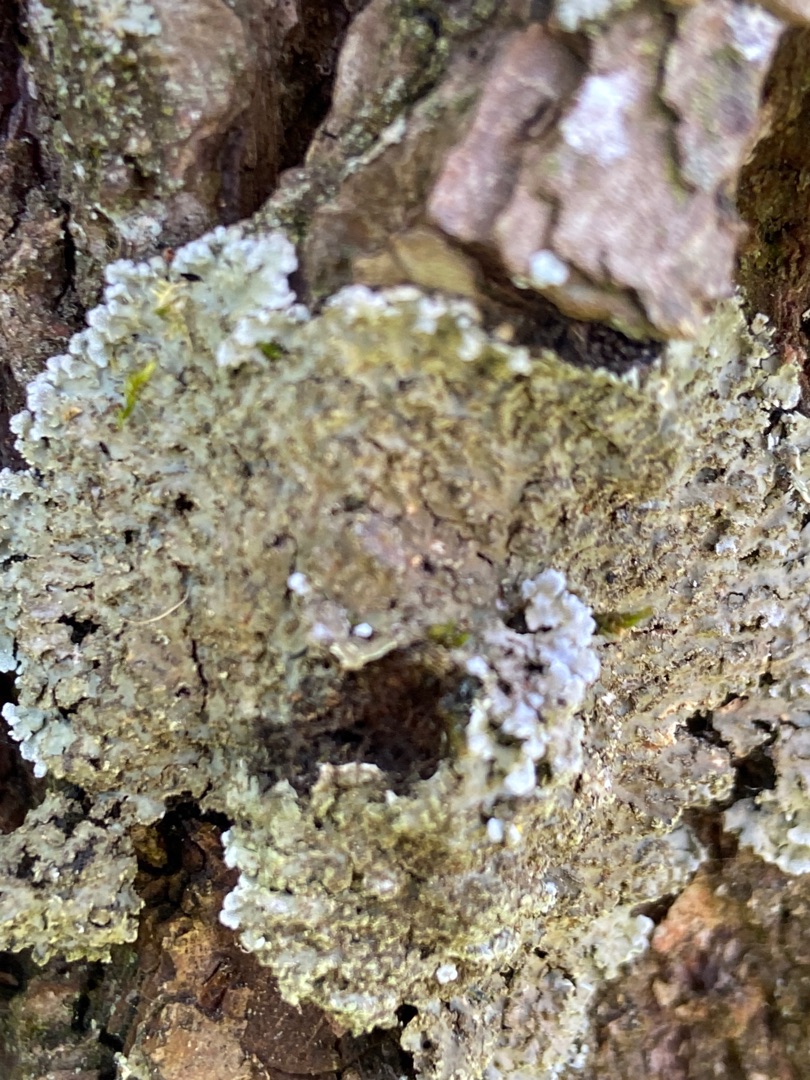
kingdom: Fungi
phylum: Ascomycota
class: Lecanoromycetes
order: Caliciales
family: Physciaceae
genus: Physconia
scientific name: Physconia
